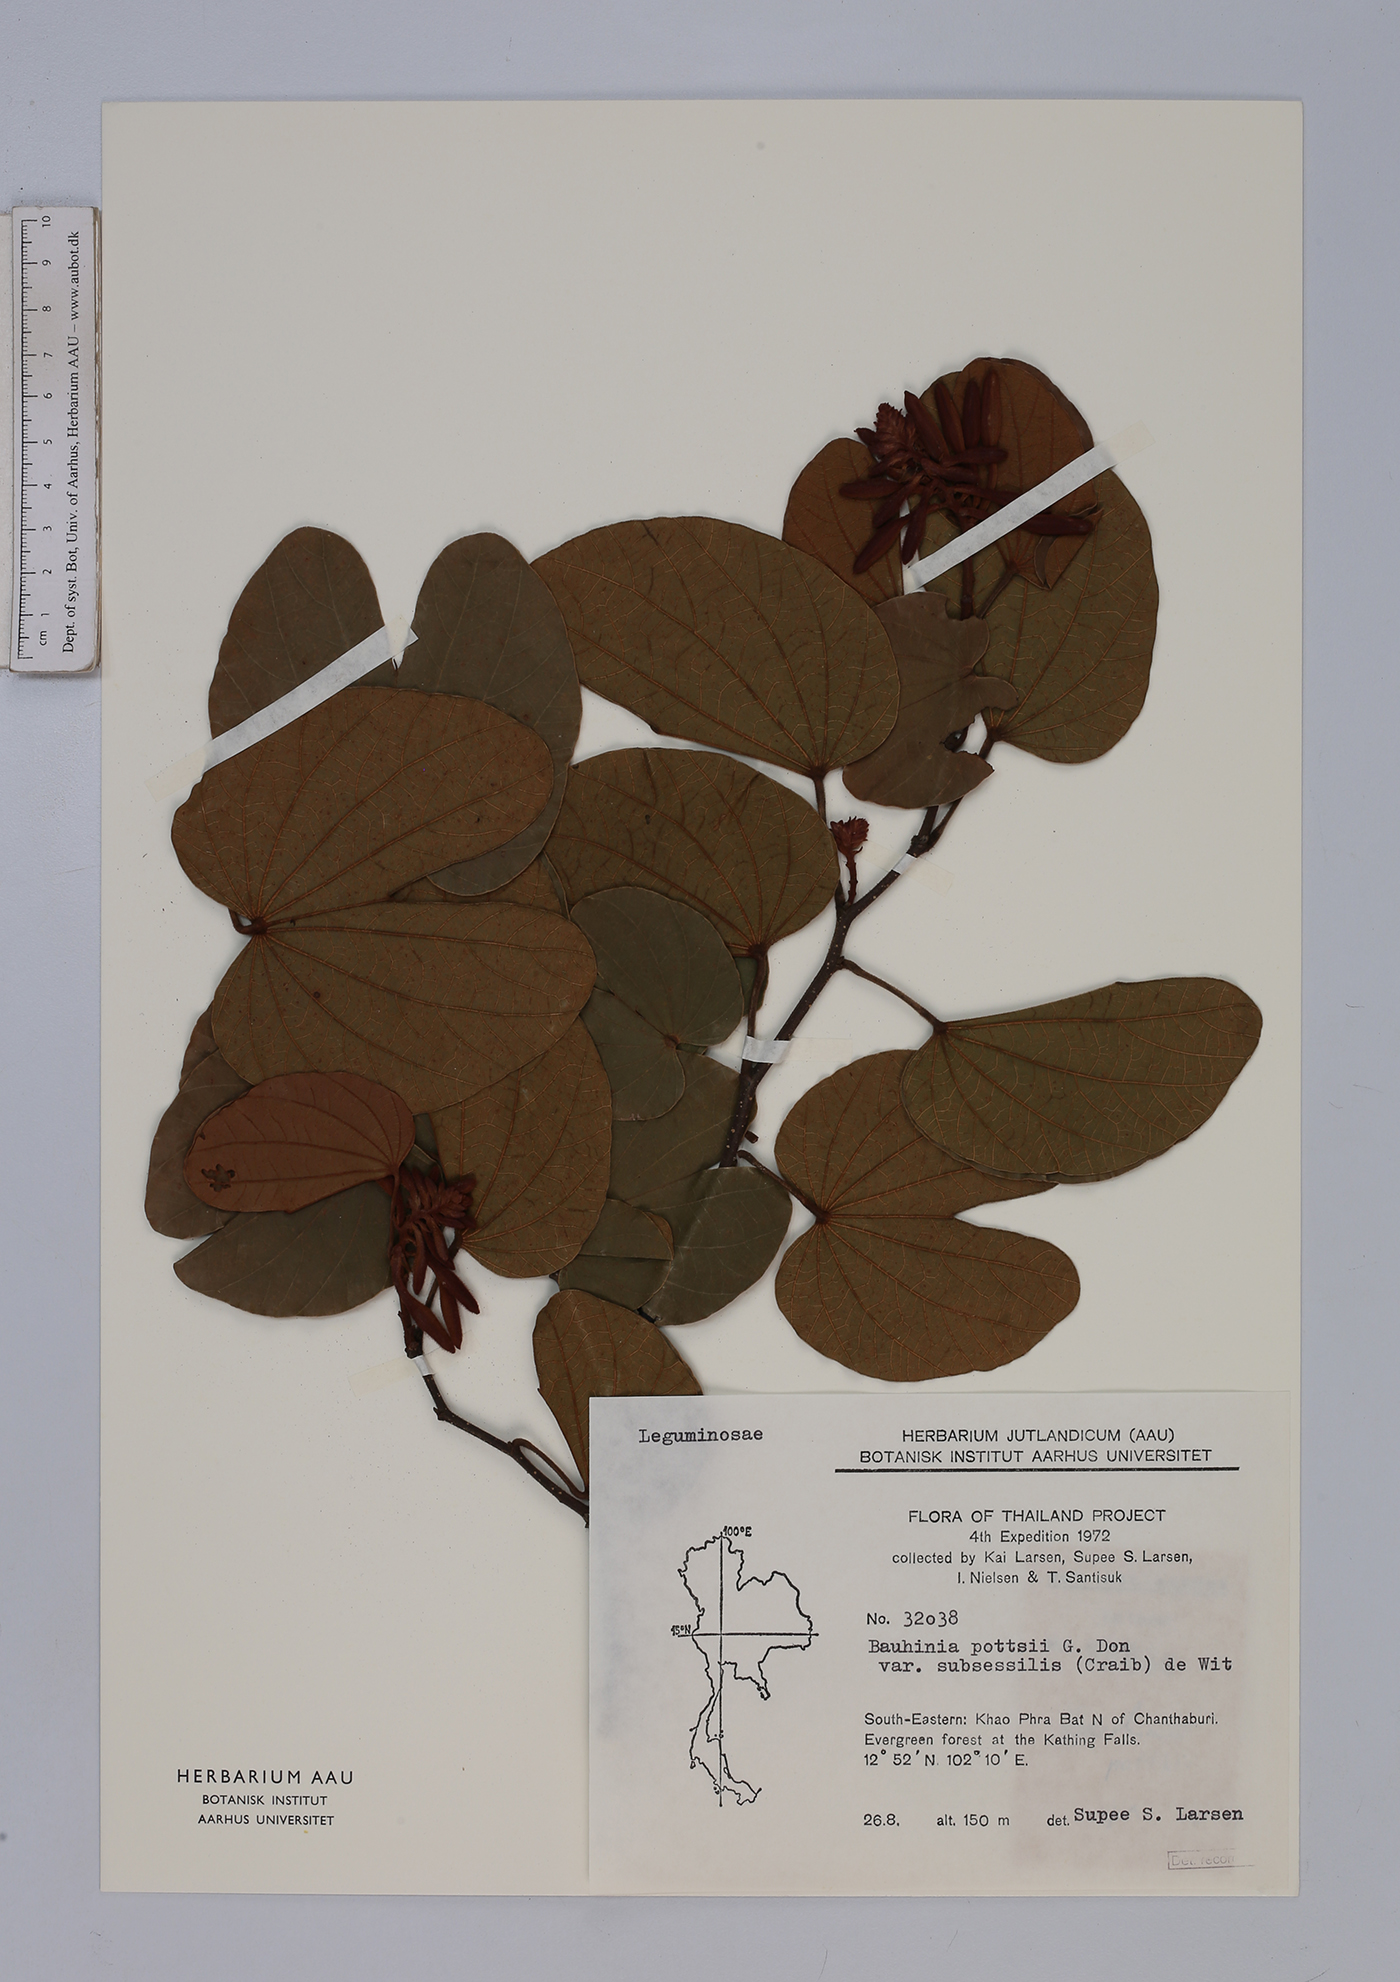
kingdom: Plantae
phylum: Tracheophyta
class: Magnoliopsida
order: Fabales
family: Fabaceae
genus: Bauhinia
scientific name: Bauhinia pottsii
